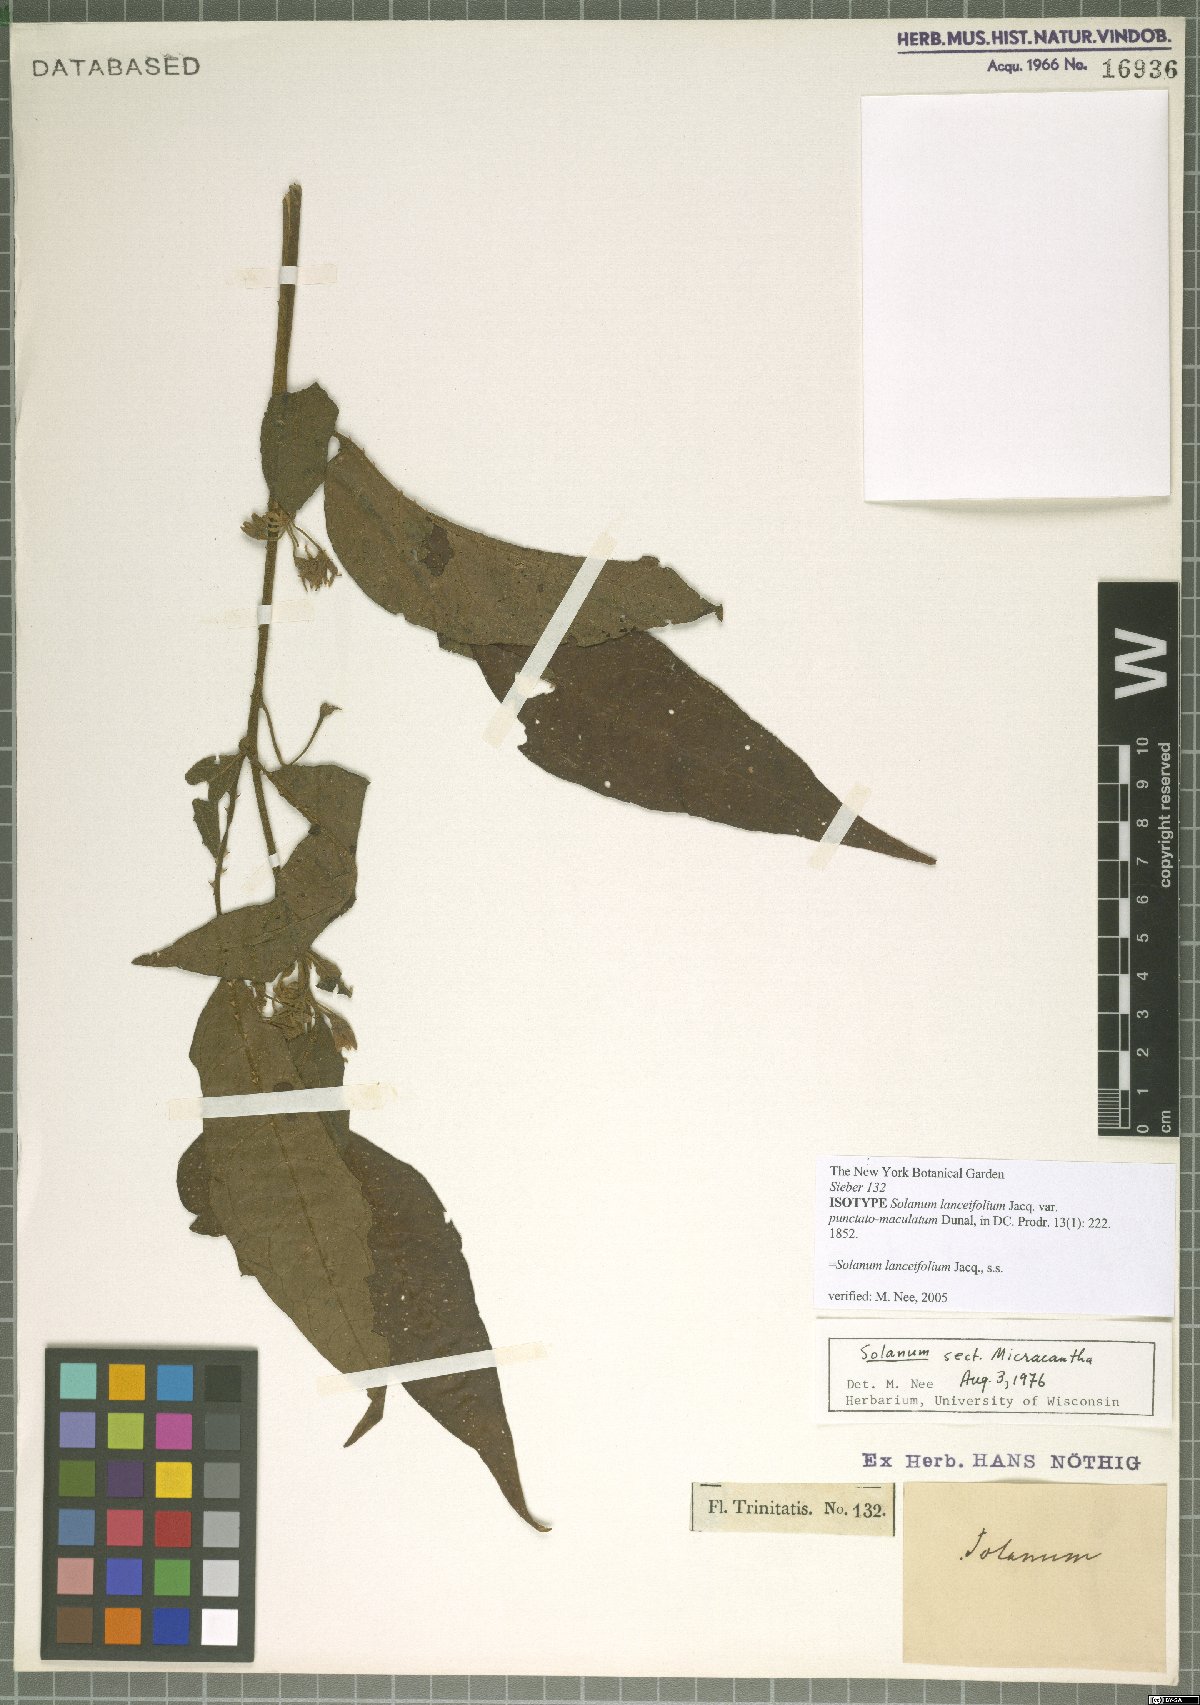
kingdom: Plantae
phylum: Tracheophyta
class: Magnoliopsida
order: Solanales
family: Solanaceae
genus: Solanum
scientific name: Solanum lanceifolium
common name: Lanceleaf nightshade
